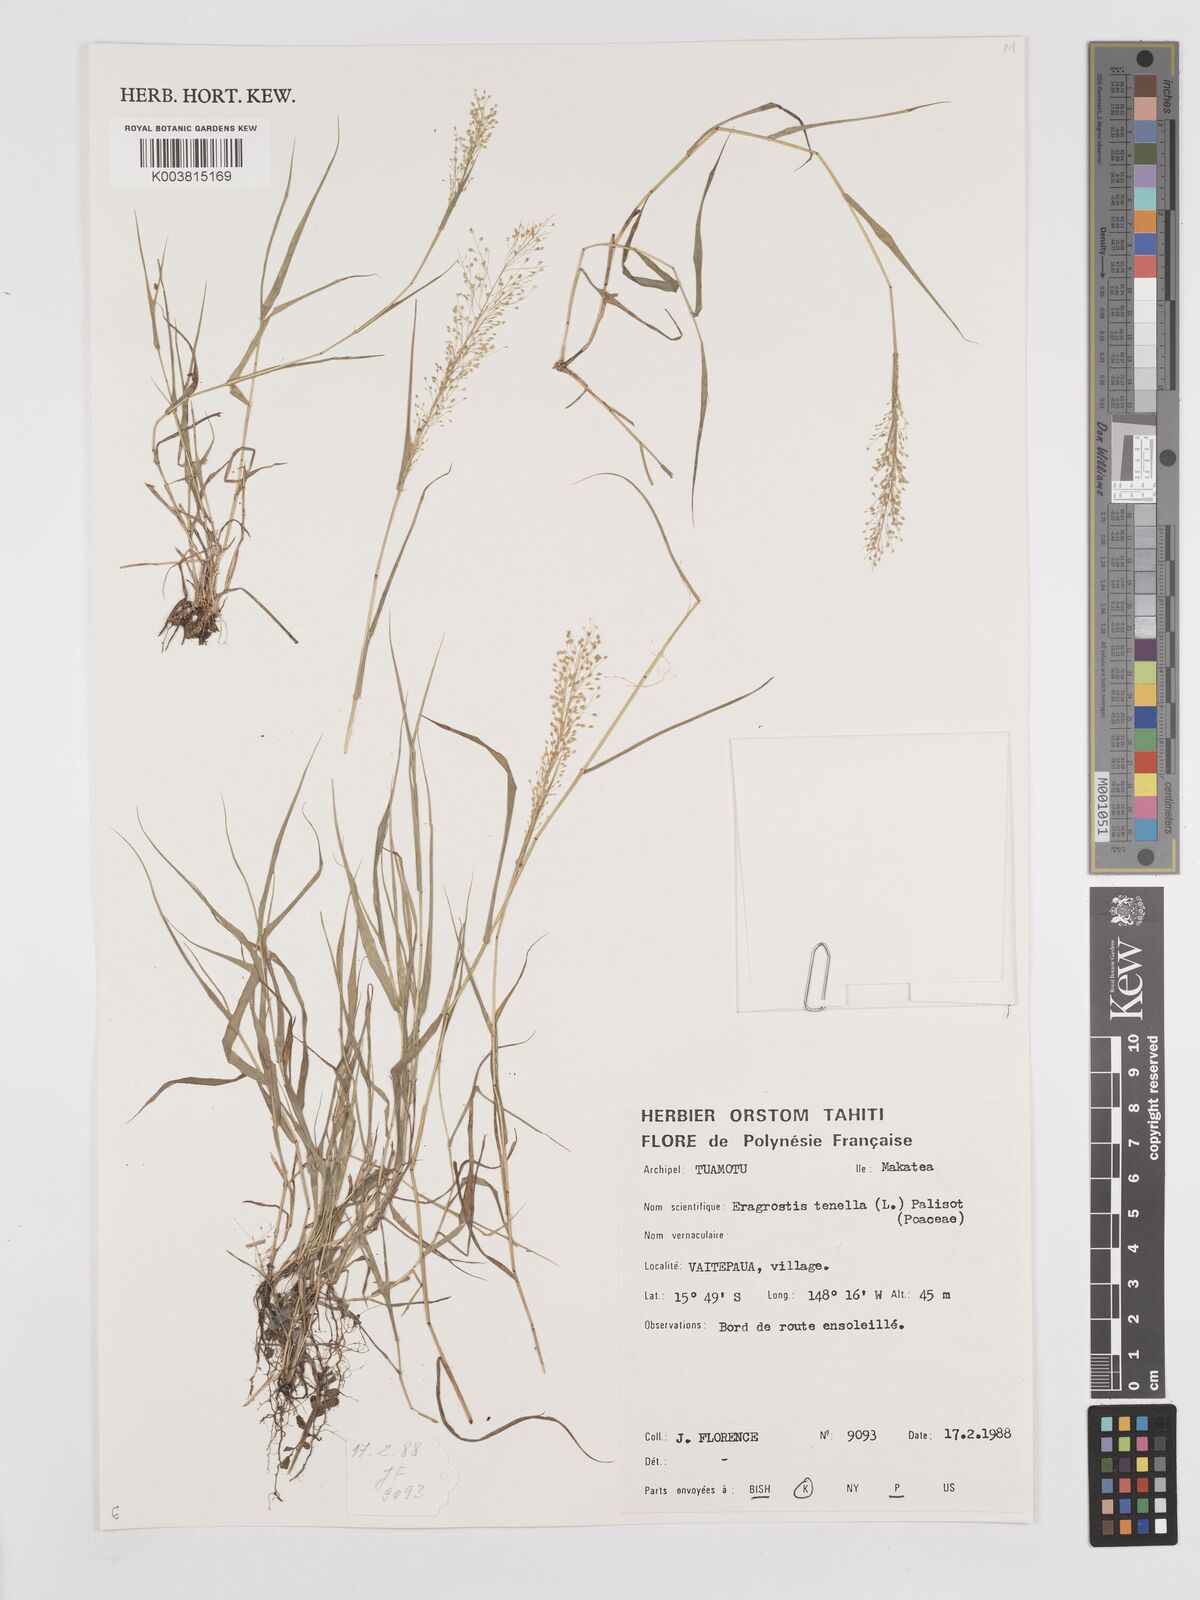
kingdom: Plantae
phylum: Tracheophyta
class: Liliopsida
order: Poales
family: Poaceae
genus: Eragrostis
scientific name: Eragrostis tenella
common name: Japanese lovegrass
